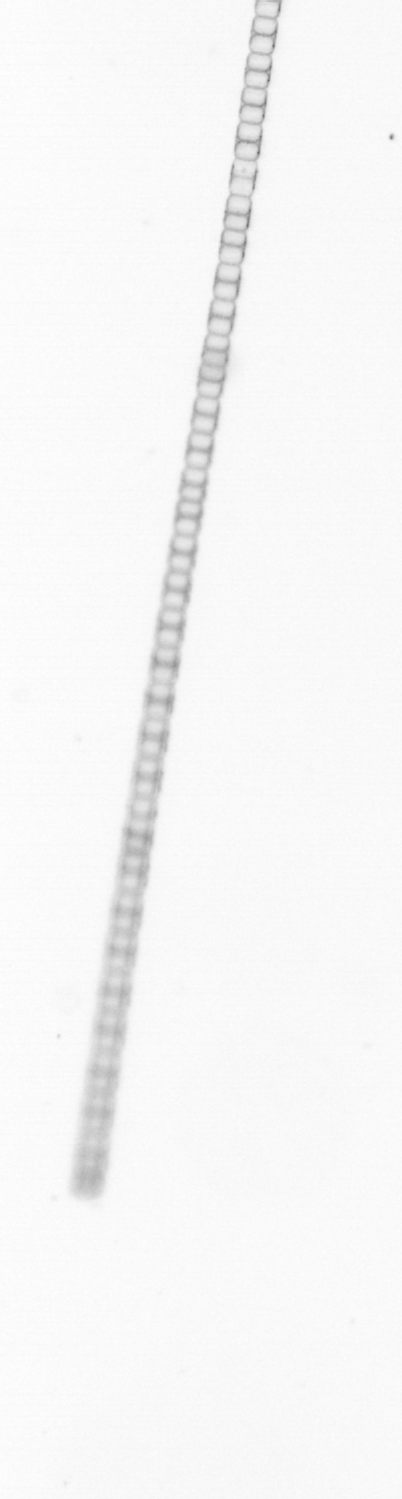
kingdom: Chromista
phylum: Ochrophyta
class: Bacillariophyceae
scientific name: Bacillariophyceae
